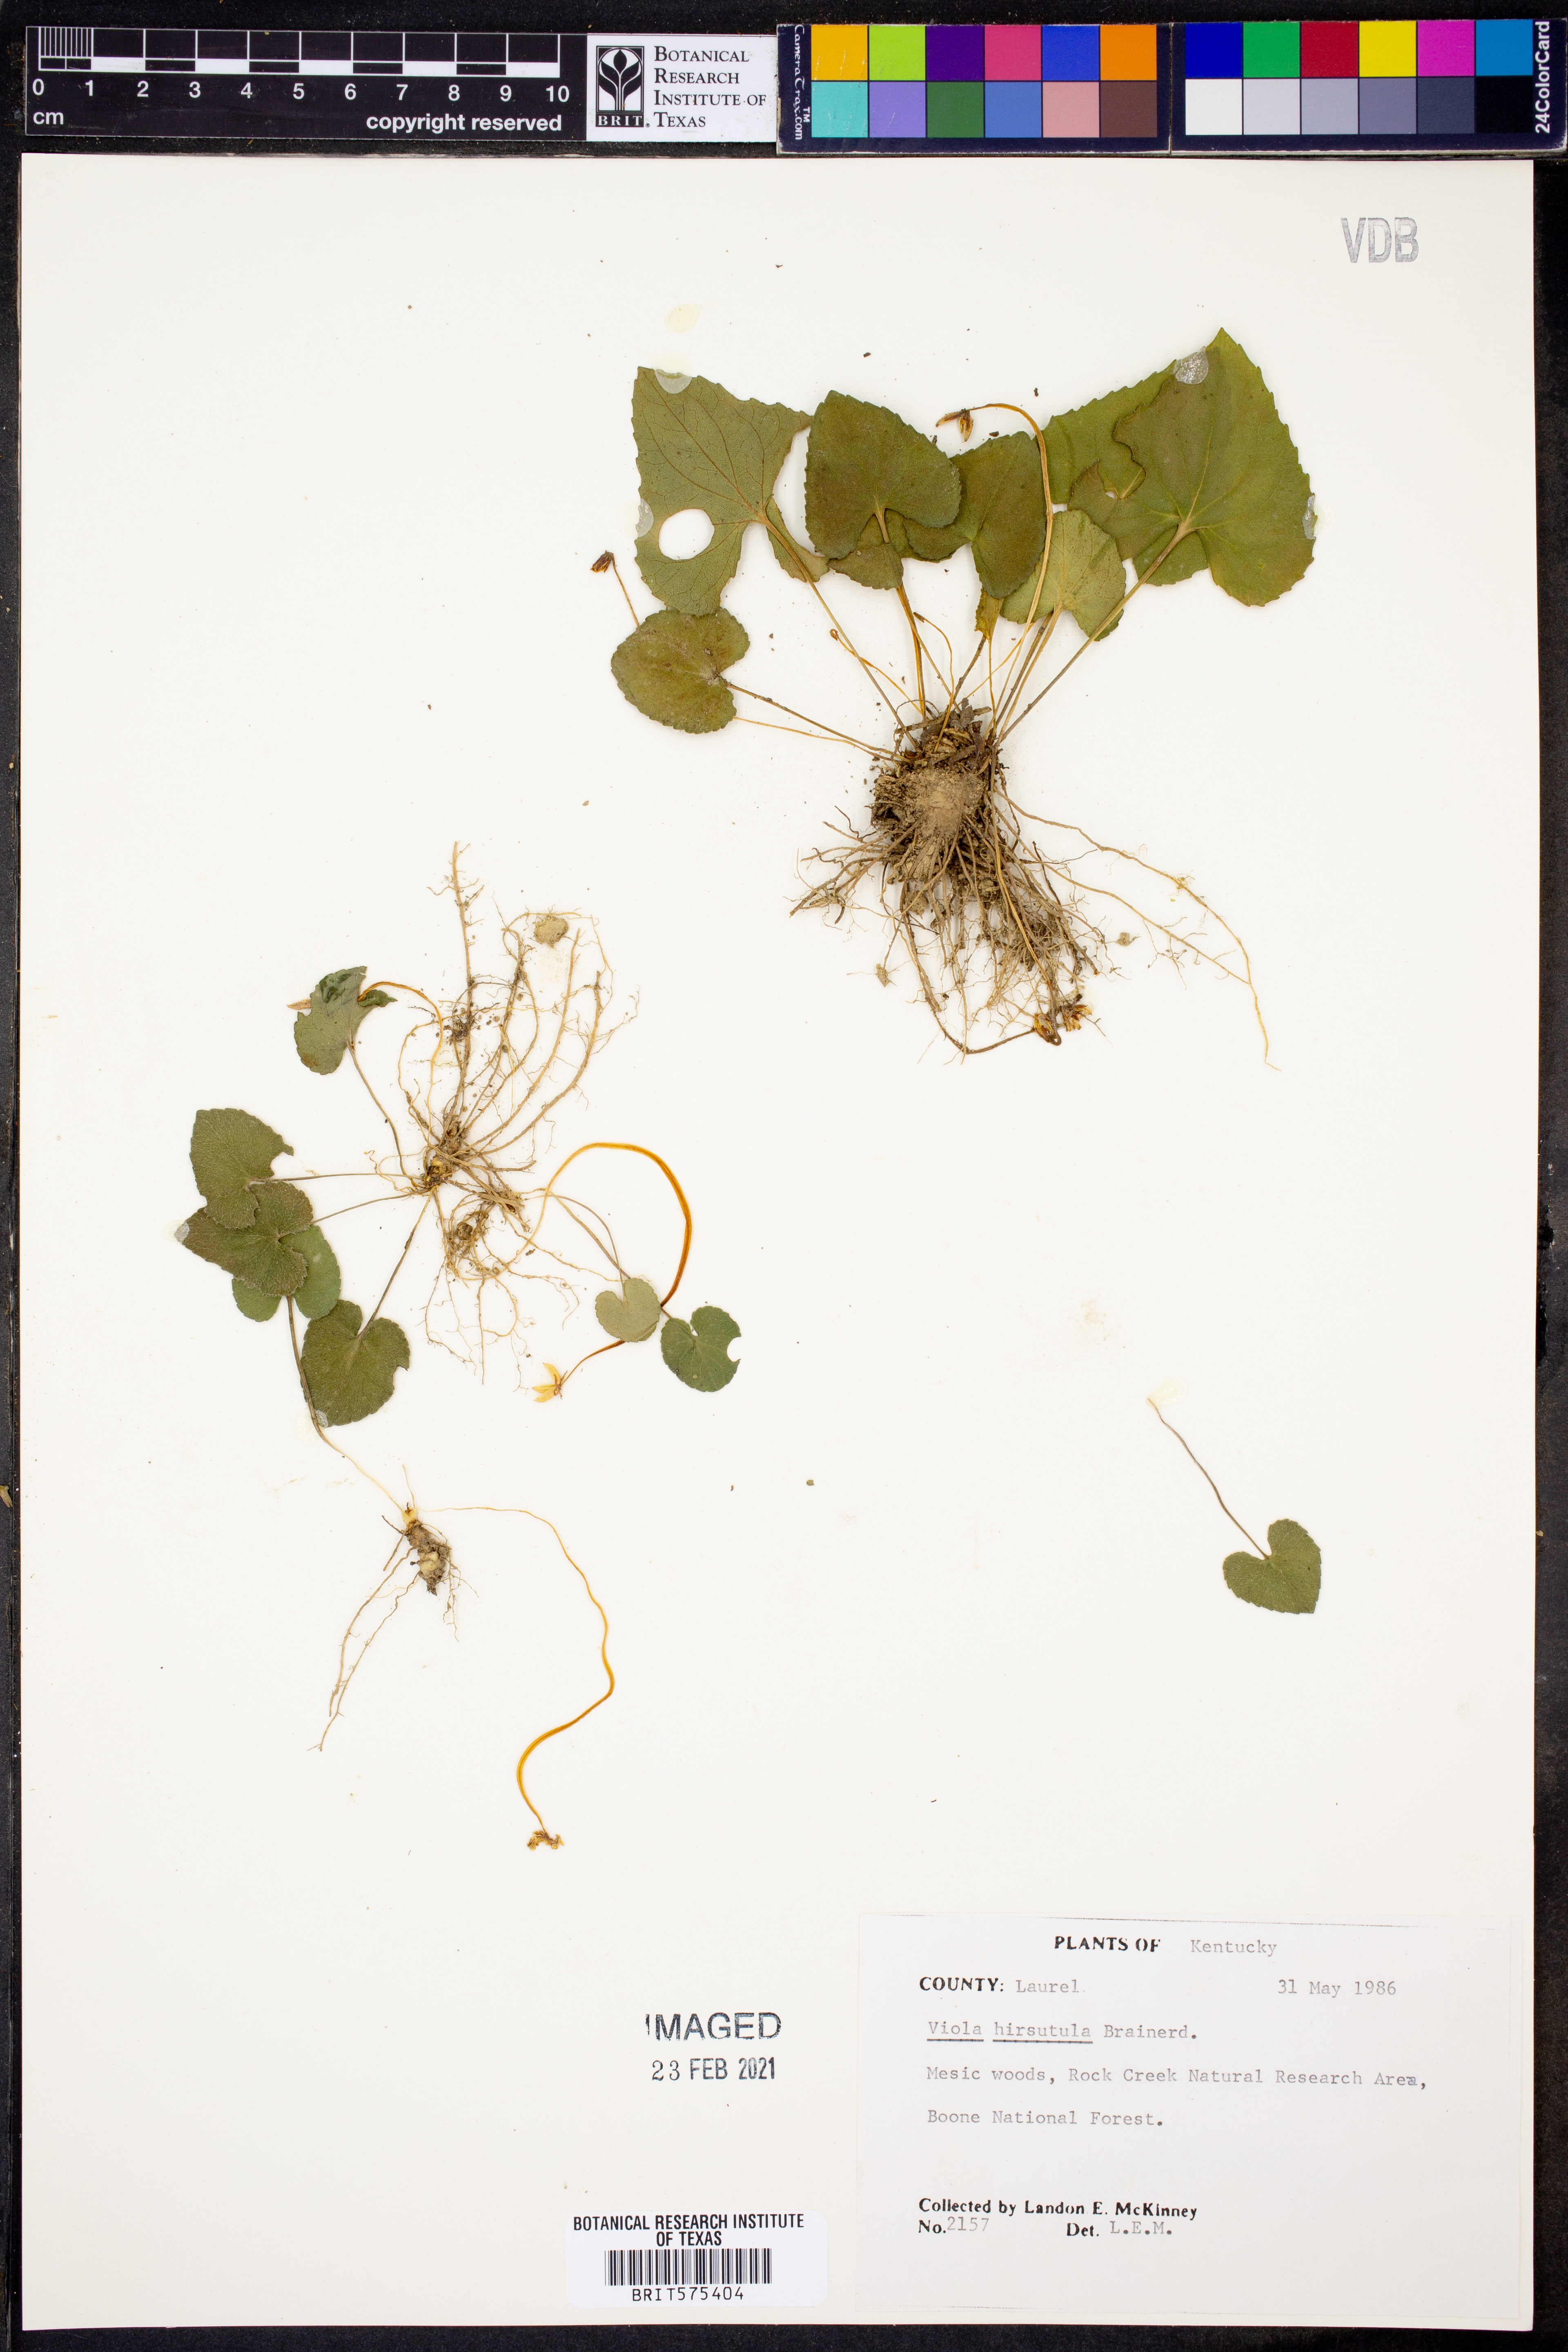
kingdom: Plantae
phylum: Tracheophyta
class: Magnoliopsida
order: Malpighiales
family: Violaceae
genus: Viola
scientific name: Viola hirsutula
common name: Southern wood violet
